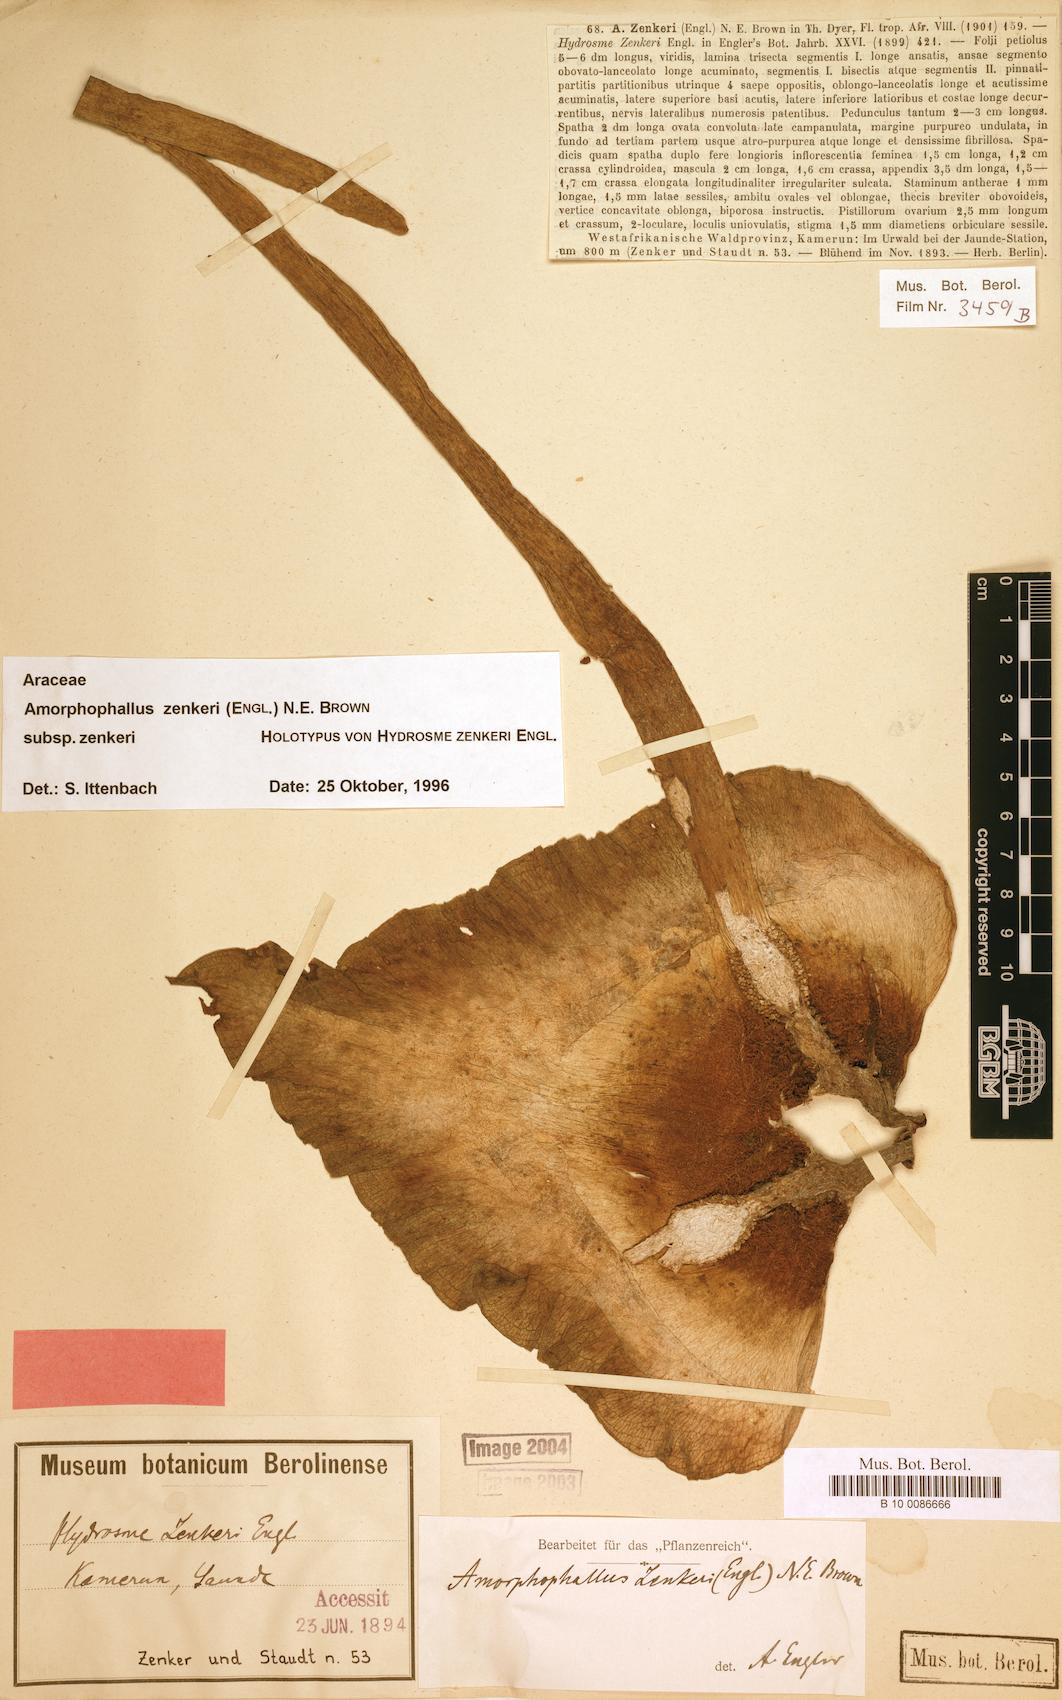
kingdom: Plantae
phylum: Tracheophyta
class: Liliopsida
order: Alismatales
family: Araceae
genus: Amorphophallus
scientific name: Amorphophallus zenkeri
